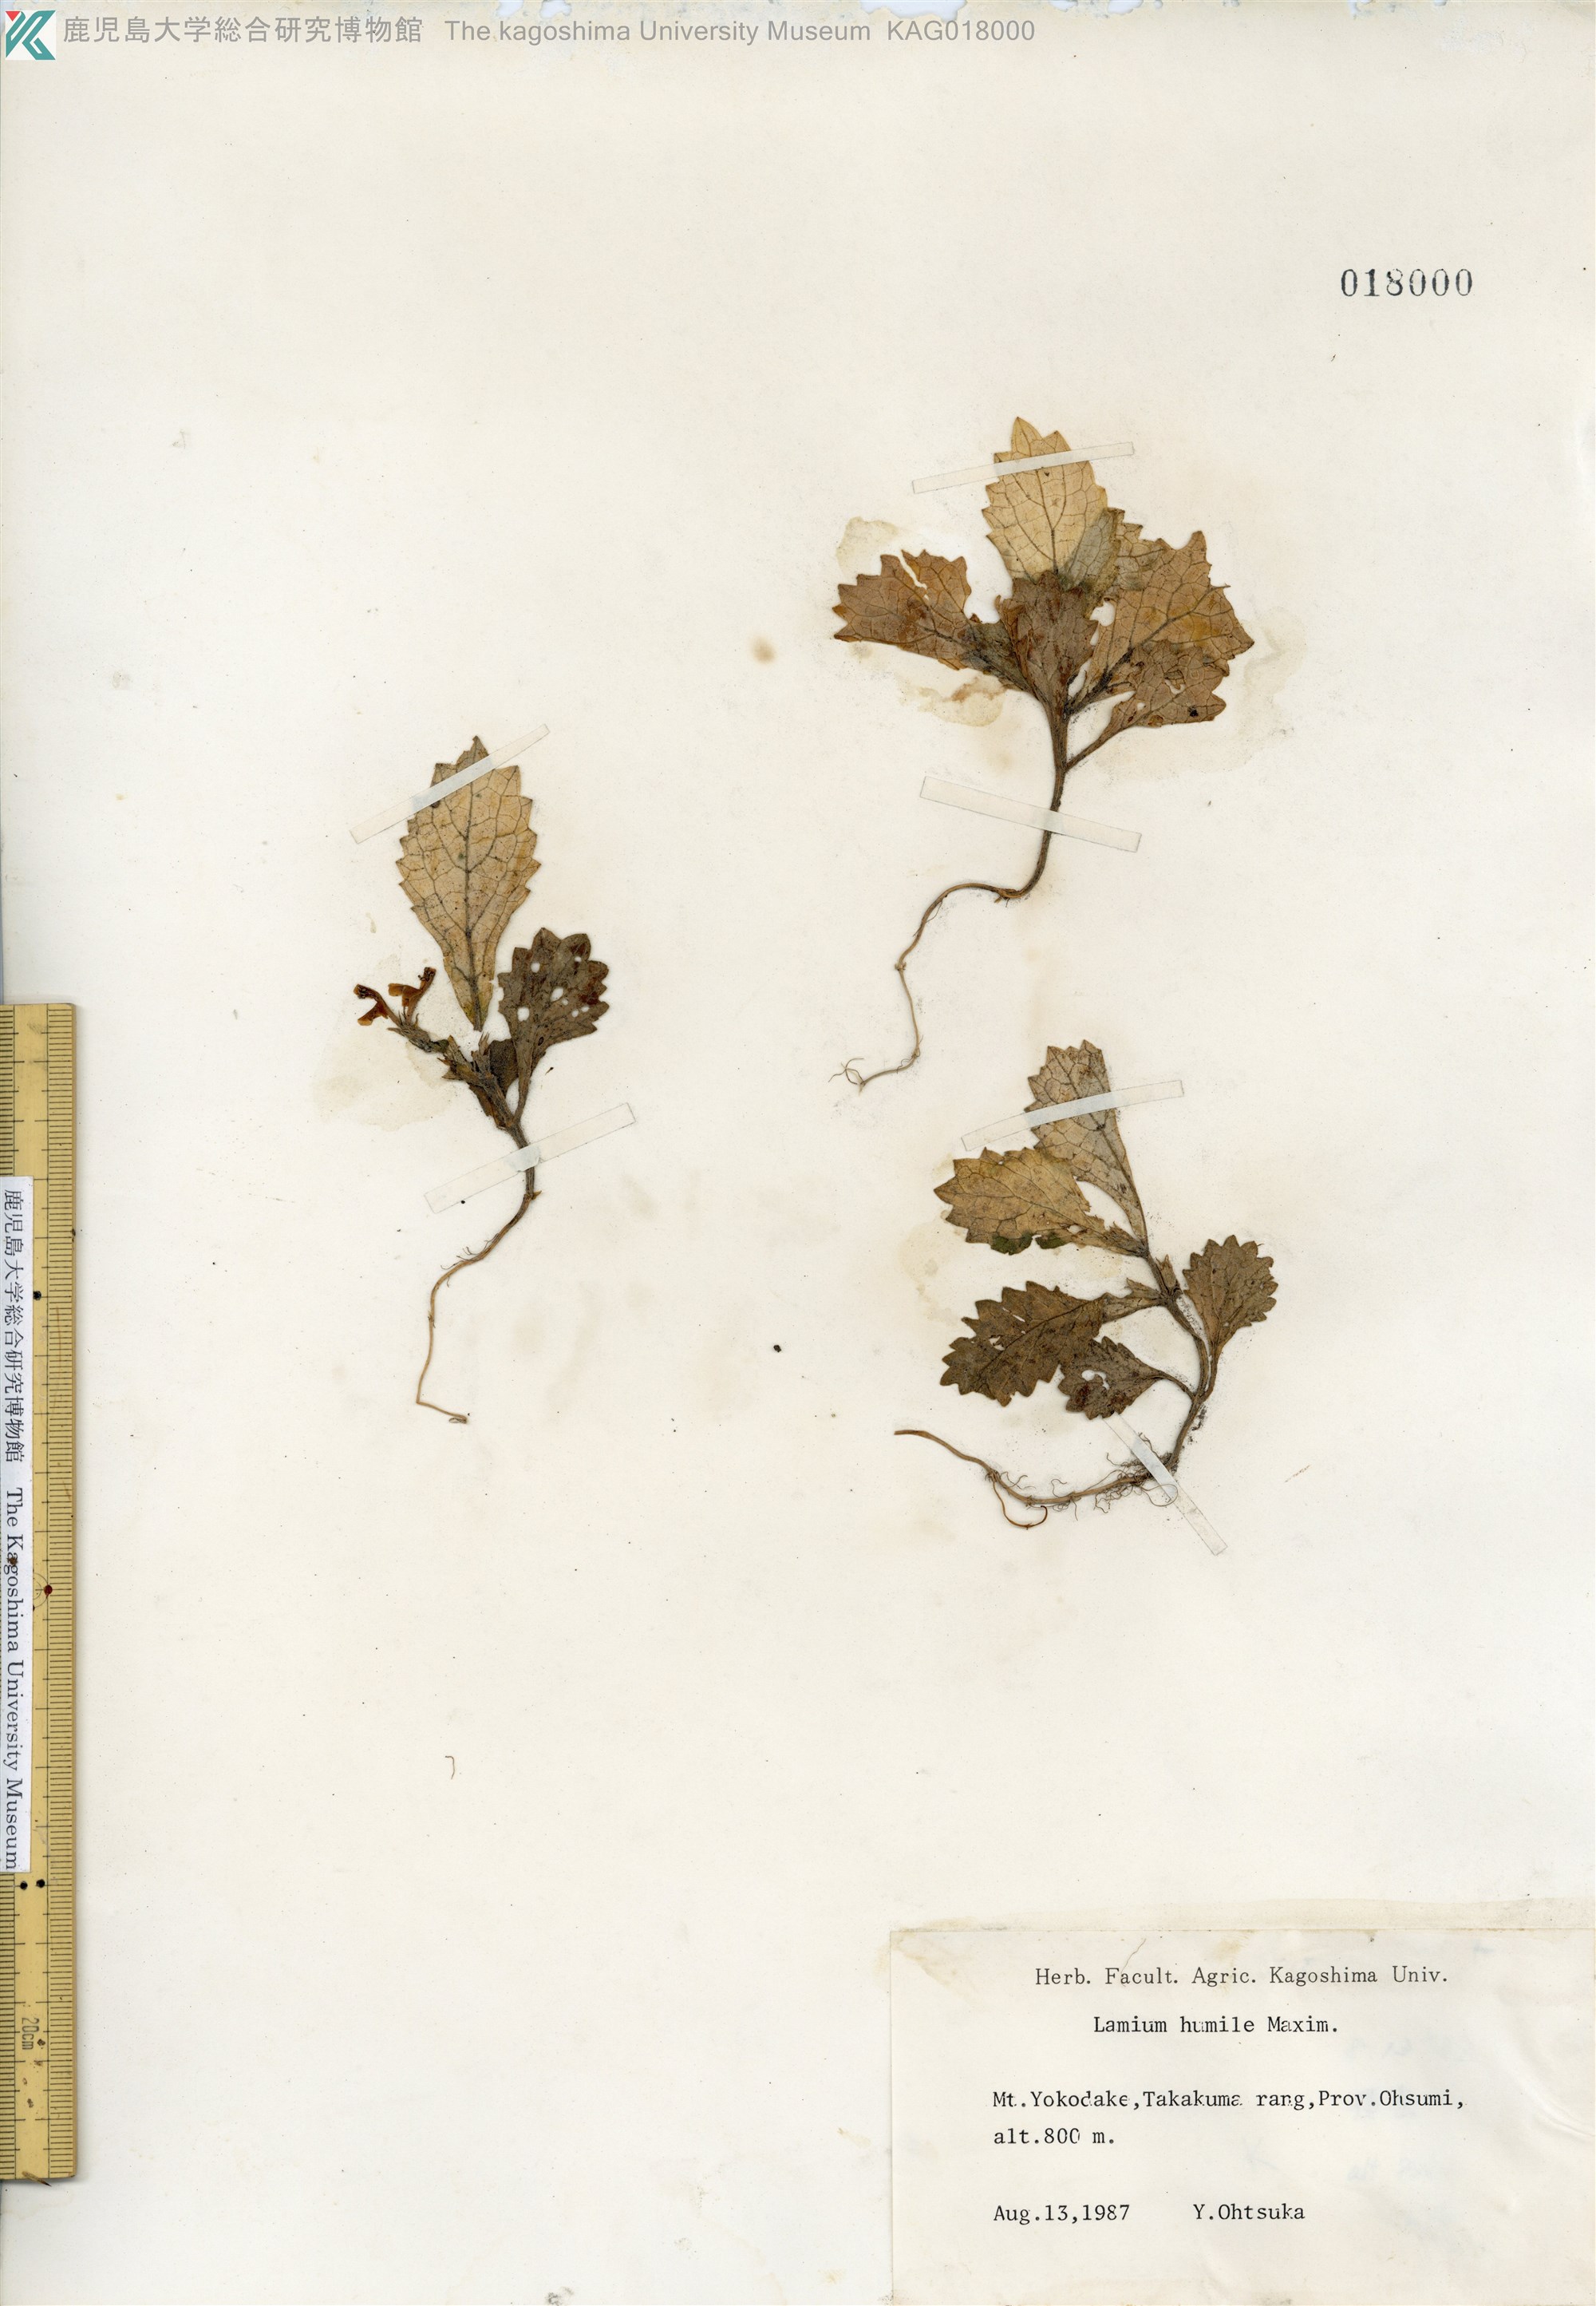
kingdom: Plantae
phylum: Tracheophyta
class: Magnoliopsida
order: Lamiales
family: Lamiaceae
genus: Ajugoides
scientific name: Ajugoides humilis
